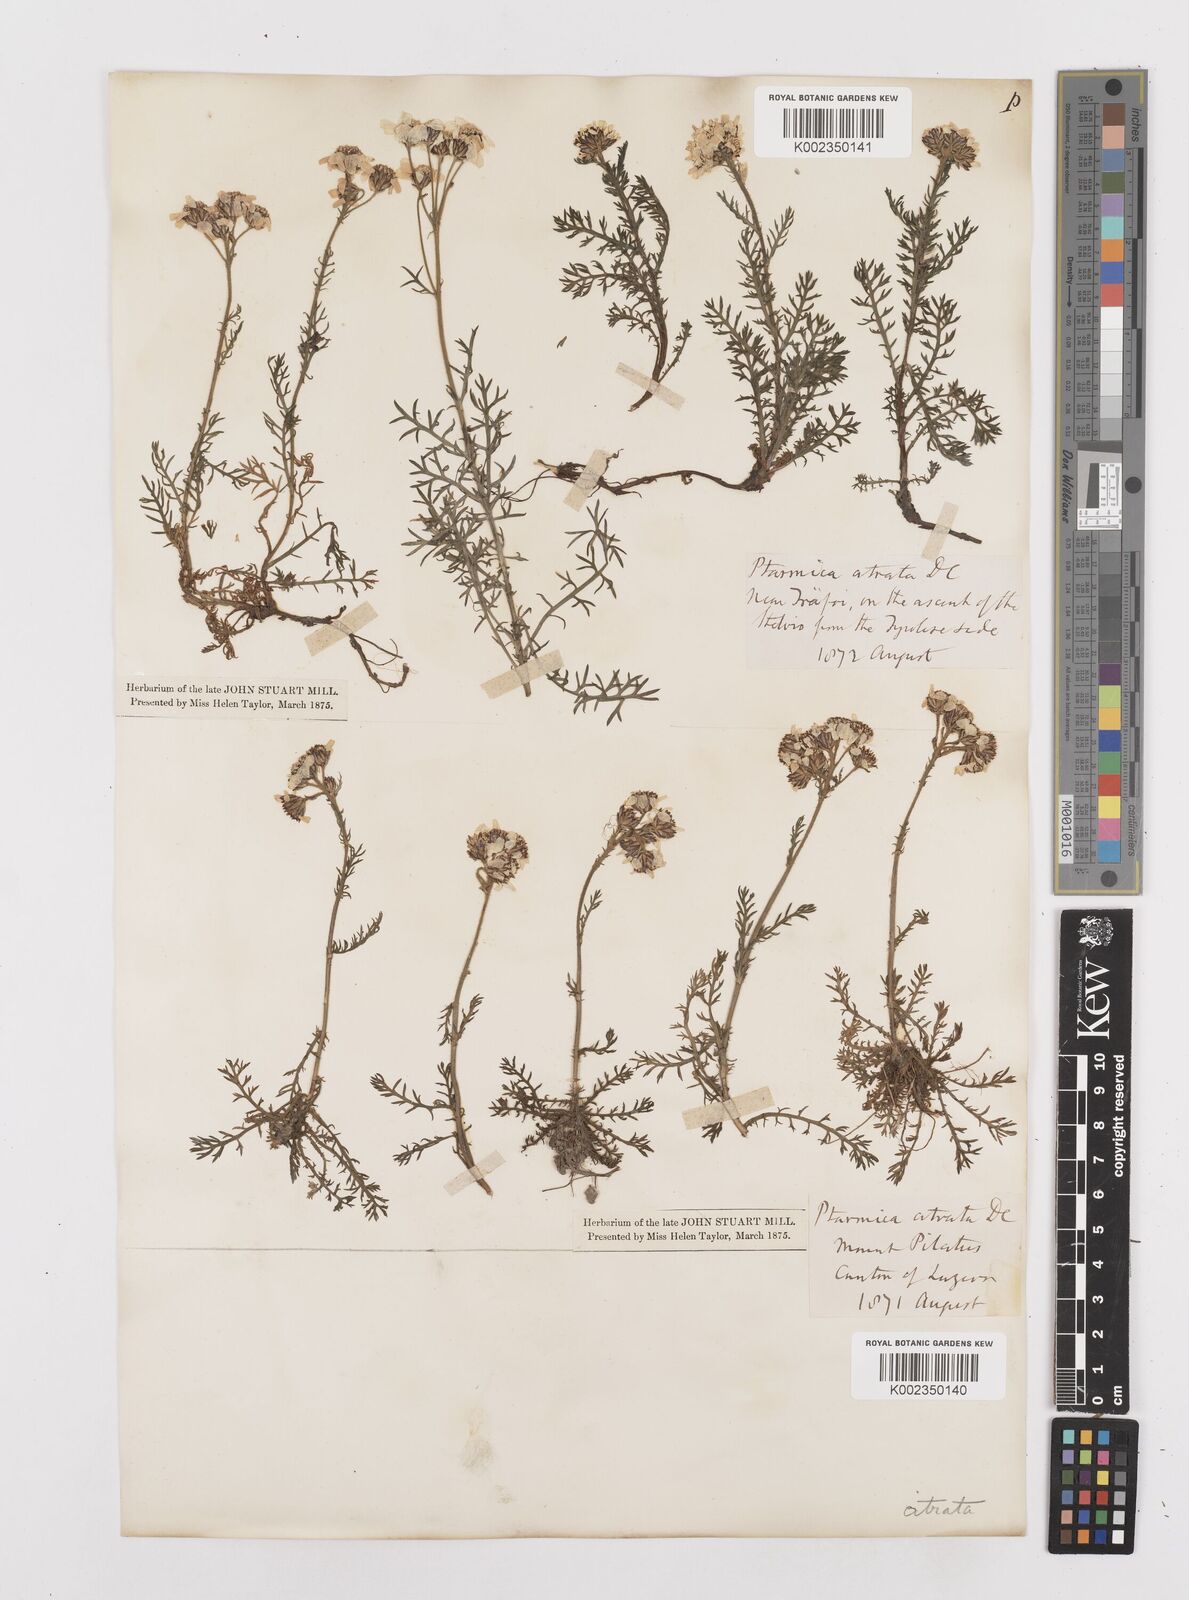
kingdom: Plantae
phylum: Tracheophyta
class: Magnoliopsida
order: Asterales
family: Asteraceae
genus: Achillea
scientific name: Achillea atrata
